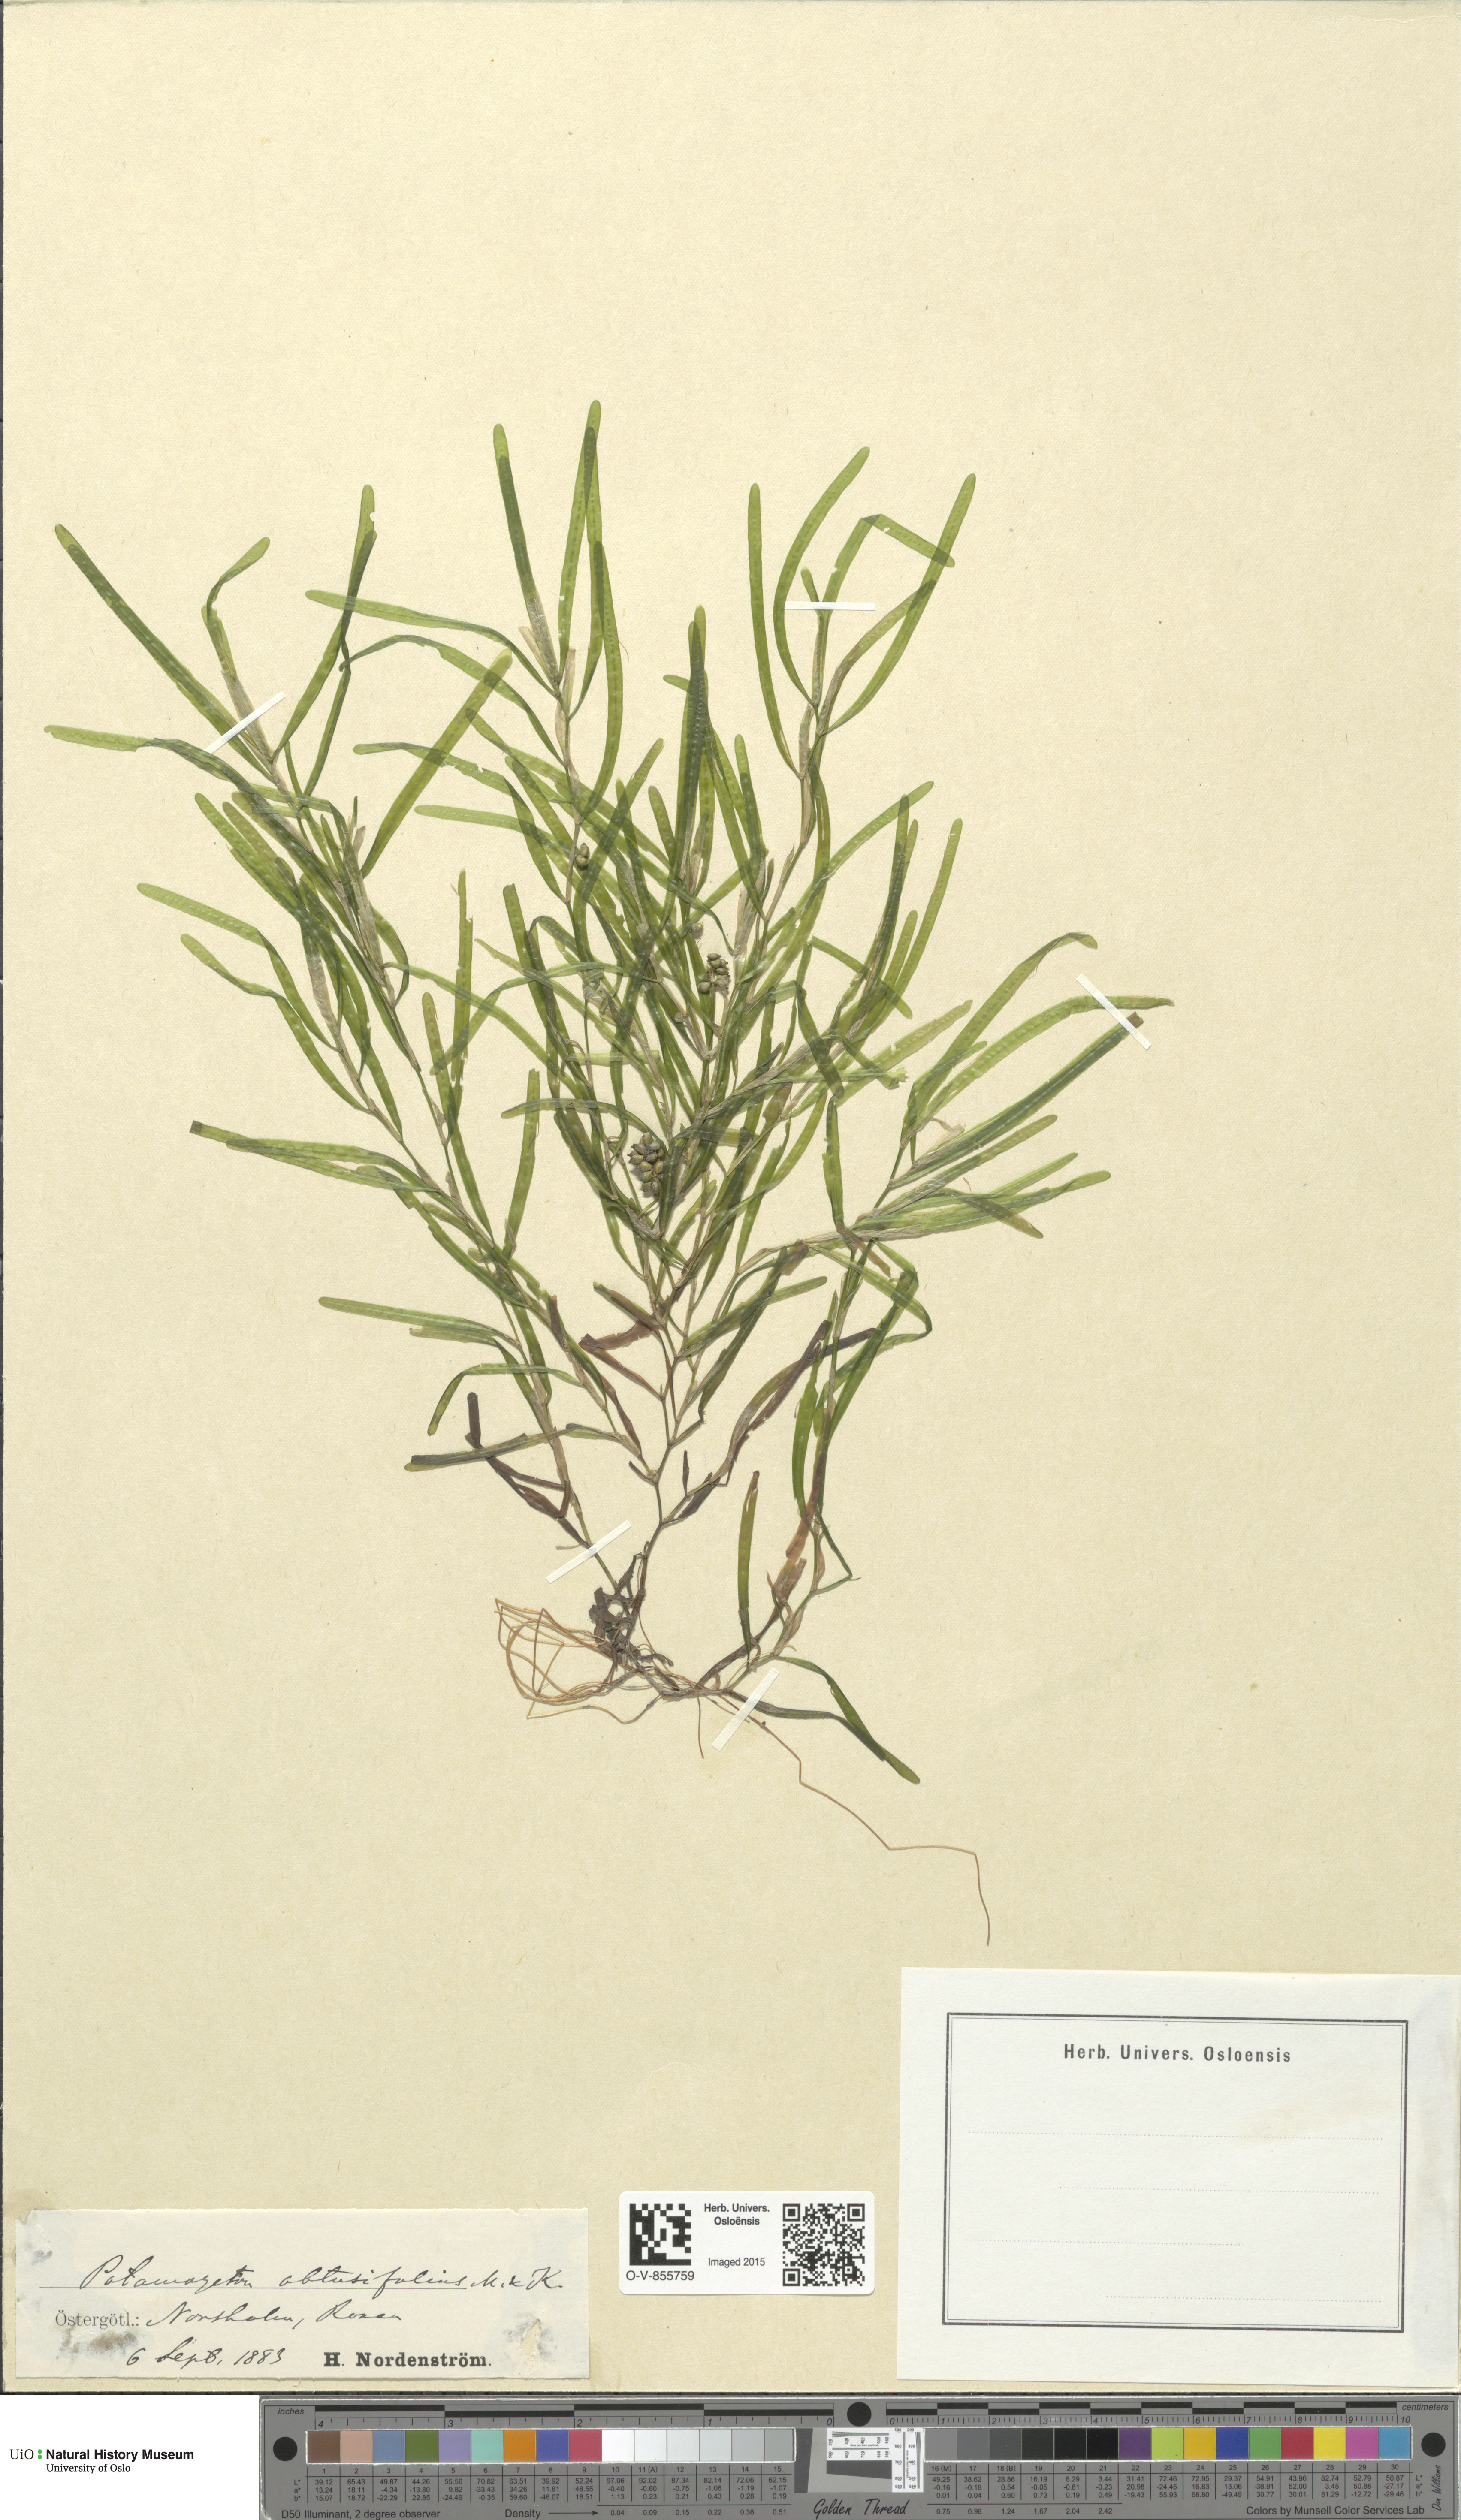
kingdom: Plantae
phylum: Tracheophyta
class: Liliopsida
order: Alismatales
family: Potamogetonaceae
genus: Potamogeton
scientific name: Potamogeton obtusifolius
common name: Blunt-leaved pondweed
